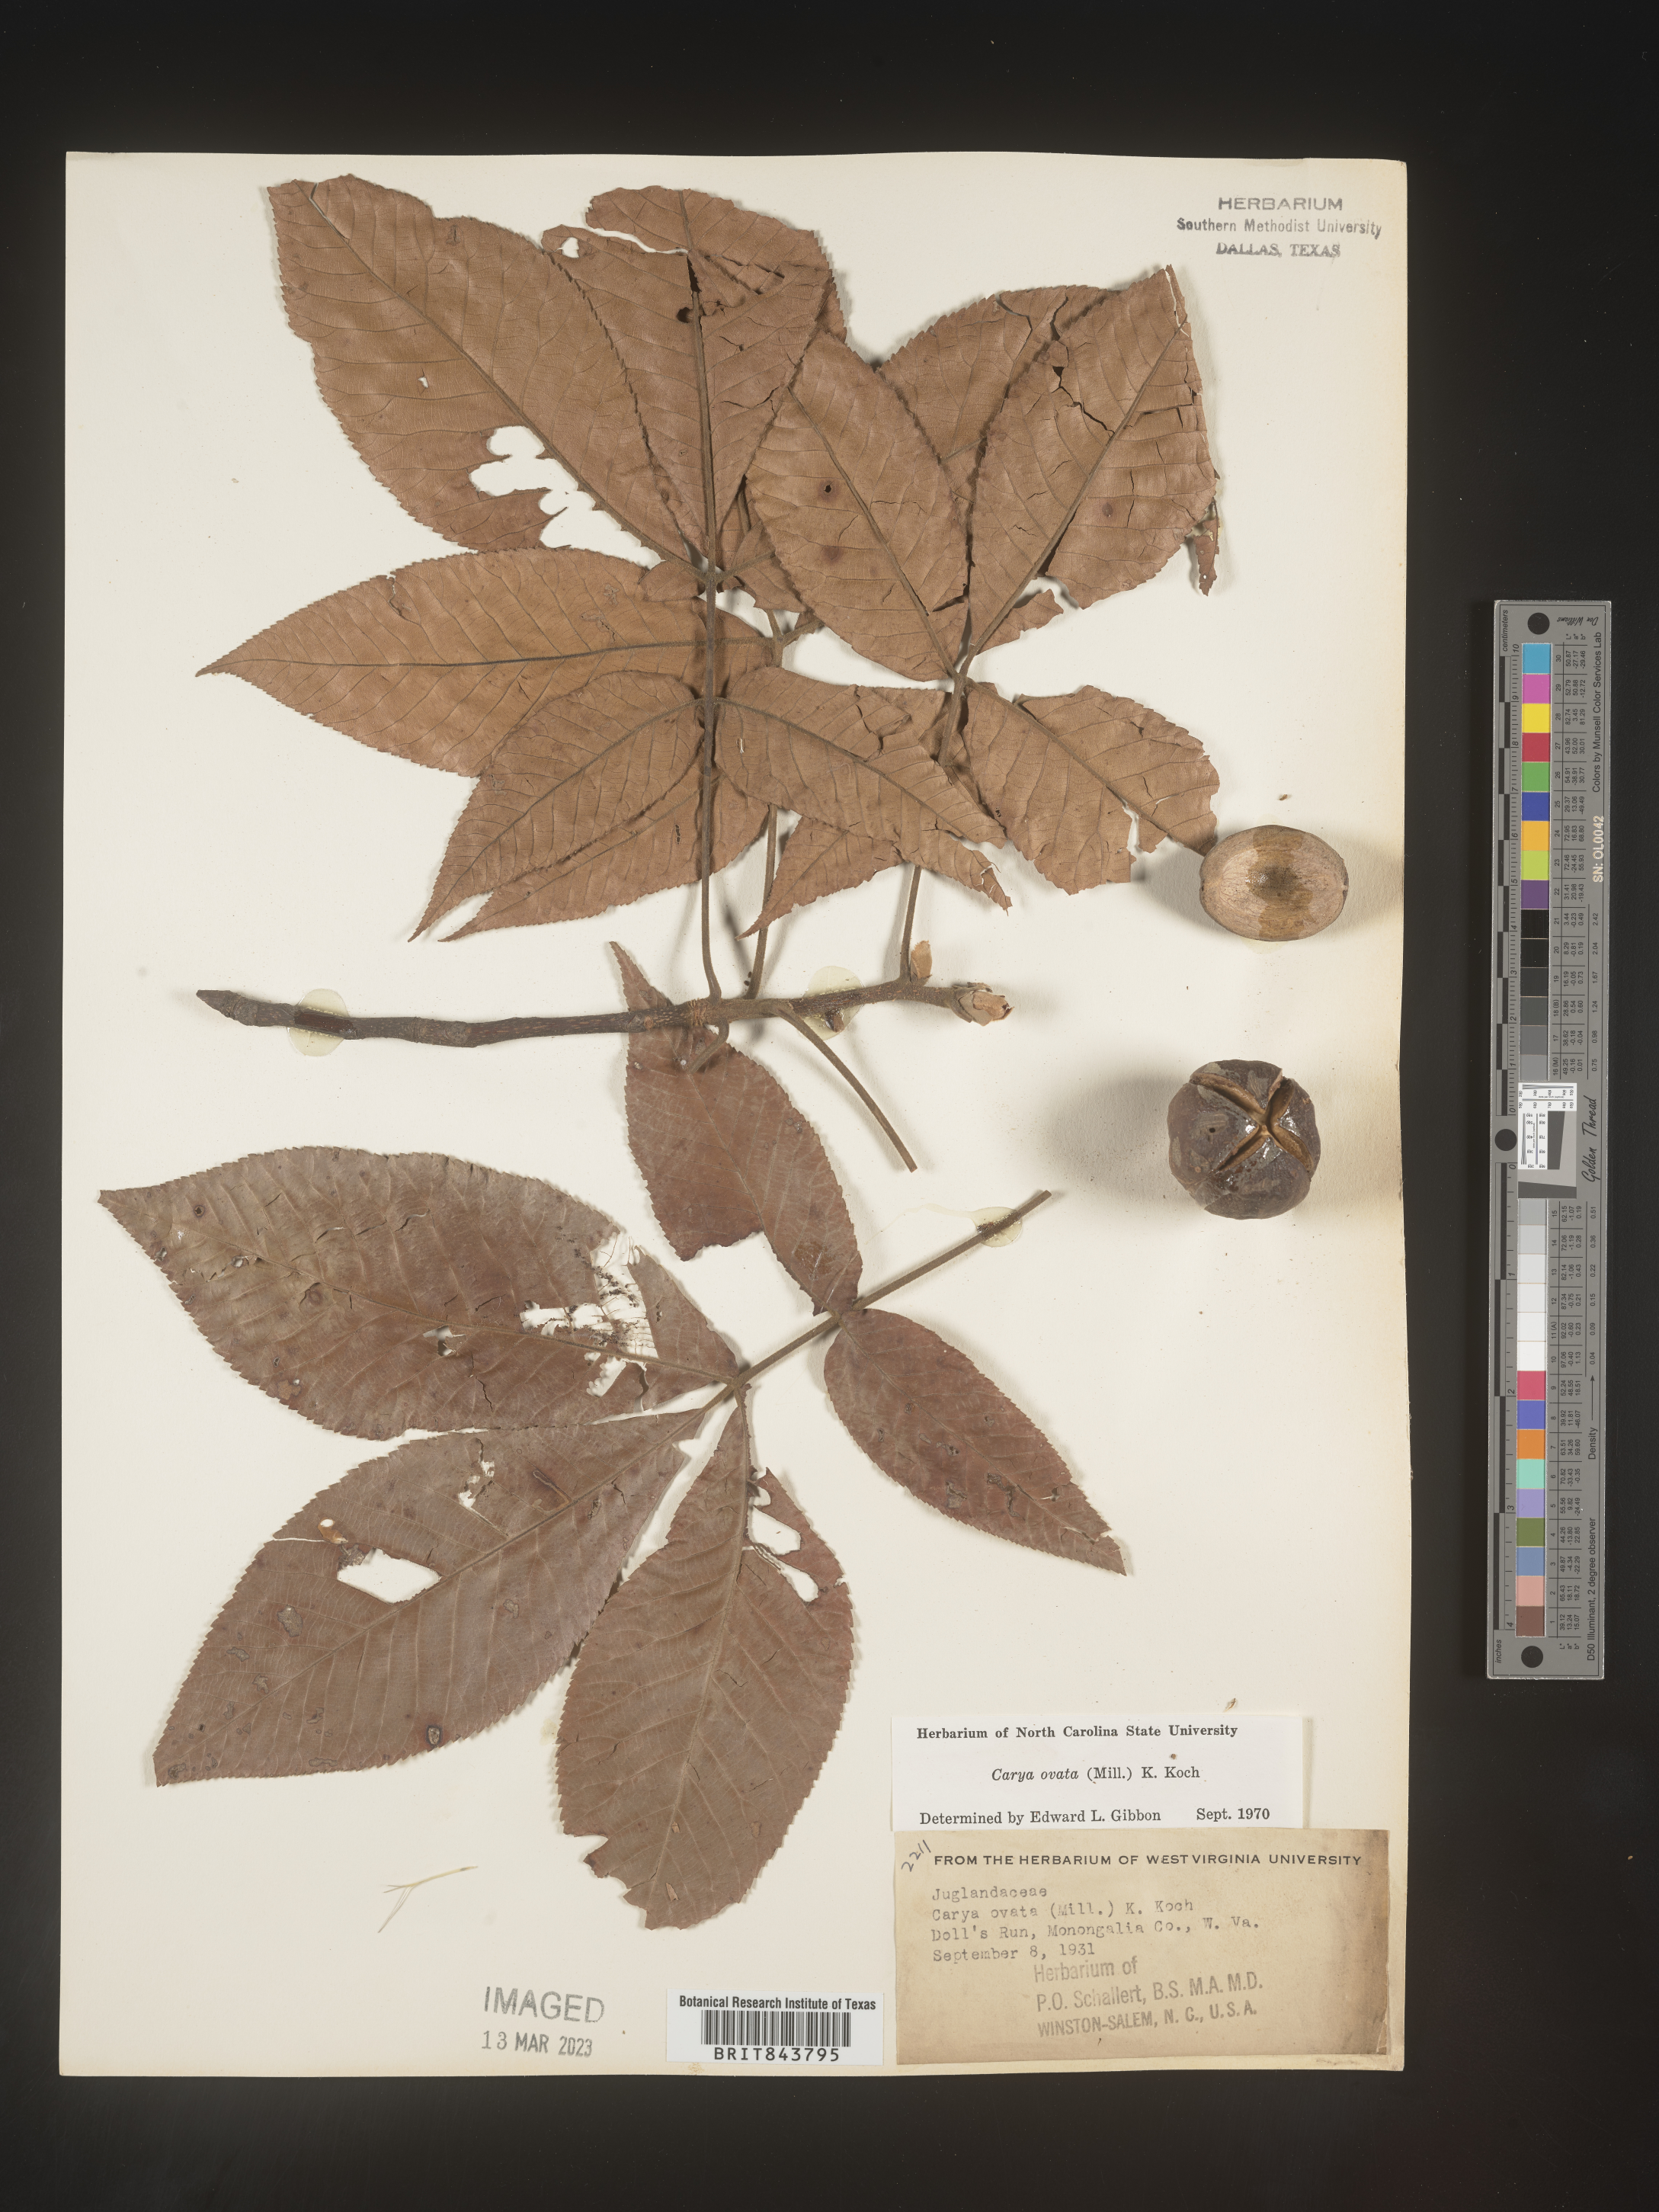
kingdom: Plantae
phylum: Tracheophyta
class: Magnoliopsida
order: Fagales
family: Juglandaceae
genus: Carya
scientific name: Carya ovata
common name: Shagbark hickory
